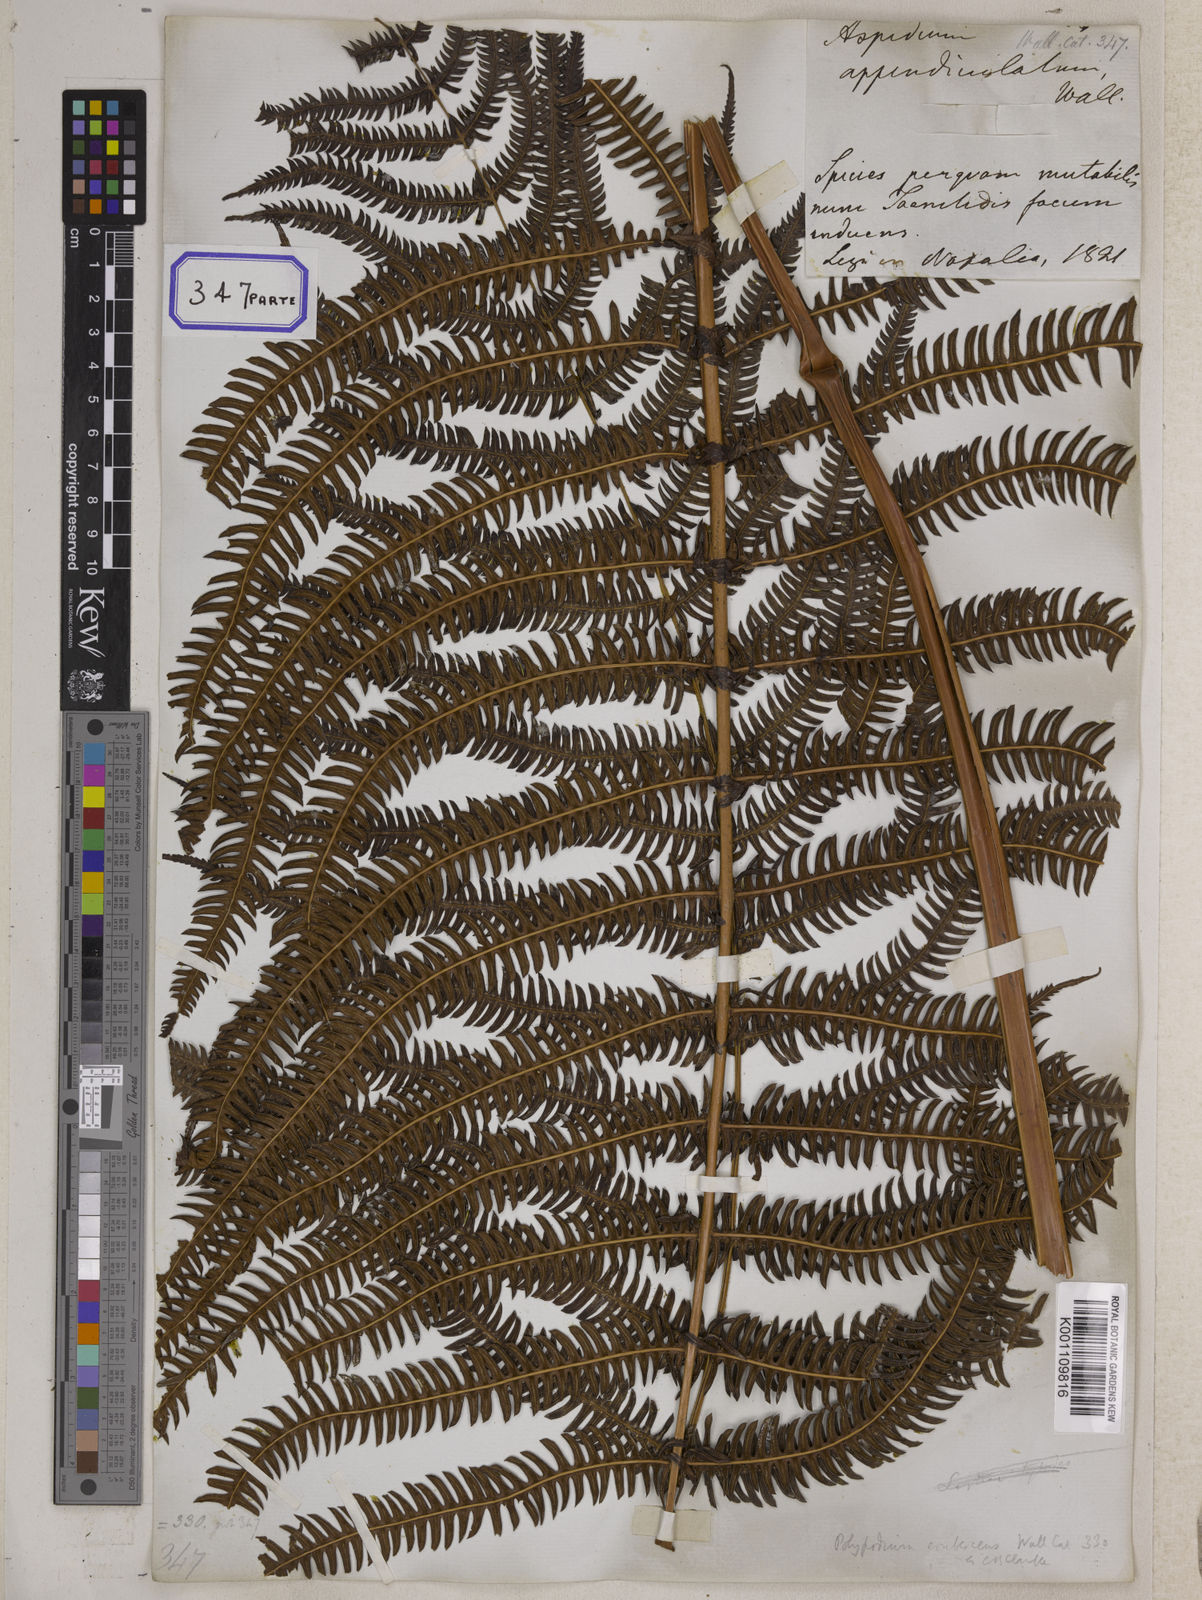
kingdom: Plantae
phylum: Tracheophyta
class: Polypodiopsida
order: Polypodiales
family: Thelypteridaceae
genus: Glaphyropteridopsis
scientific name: Glaphyropteridopsis erubescens
